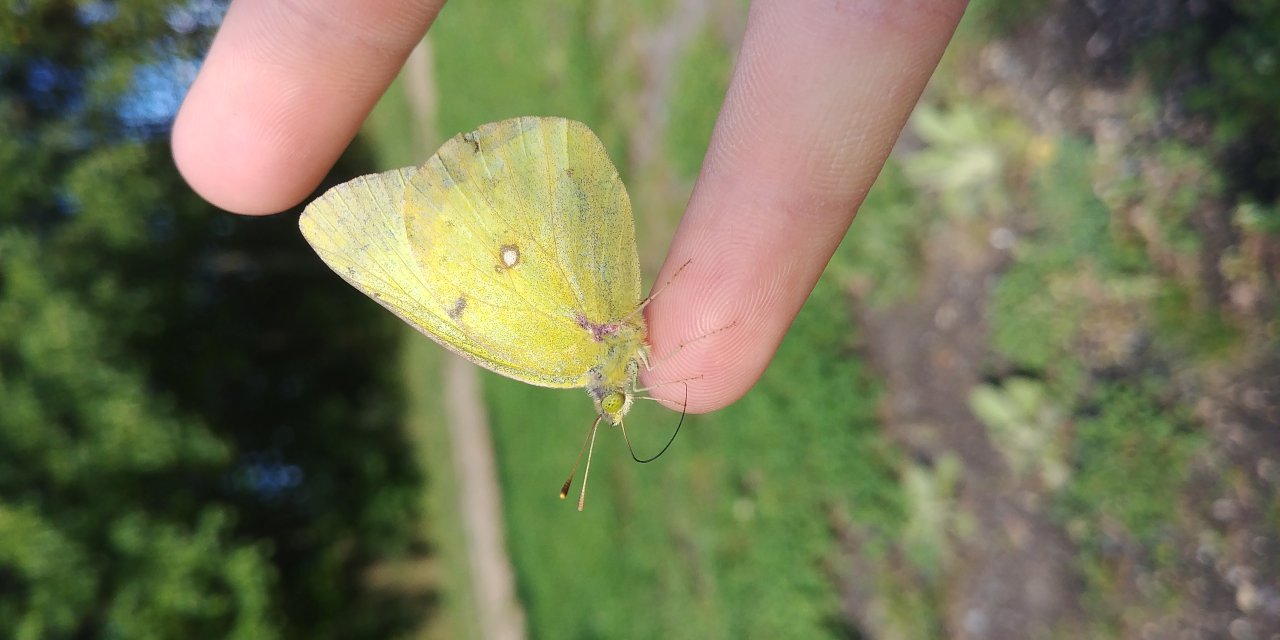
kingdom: Animalia
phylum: Arthropoda
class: Insecta
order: Lepidoptera
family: Pieridae
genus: Colias
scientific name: Colias philodice
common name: Clouded Sulphur
